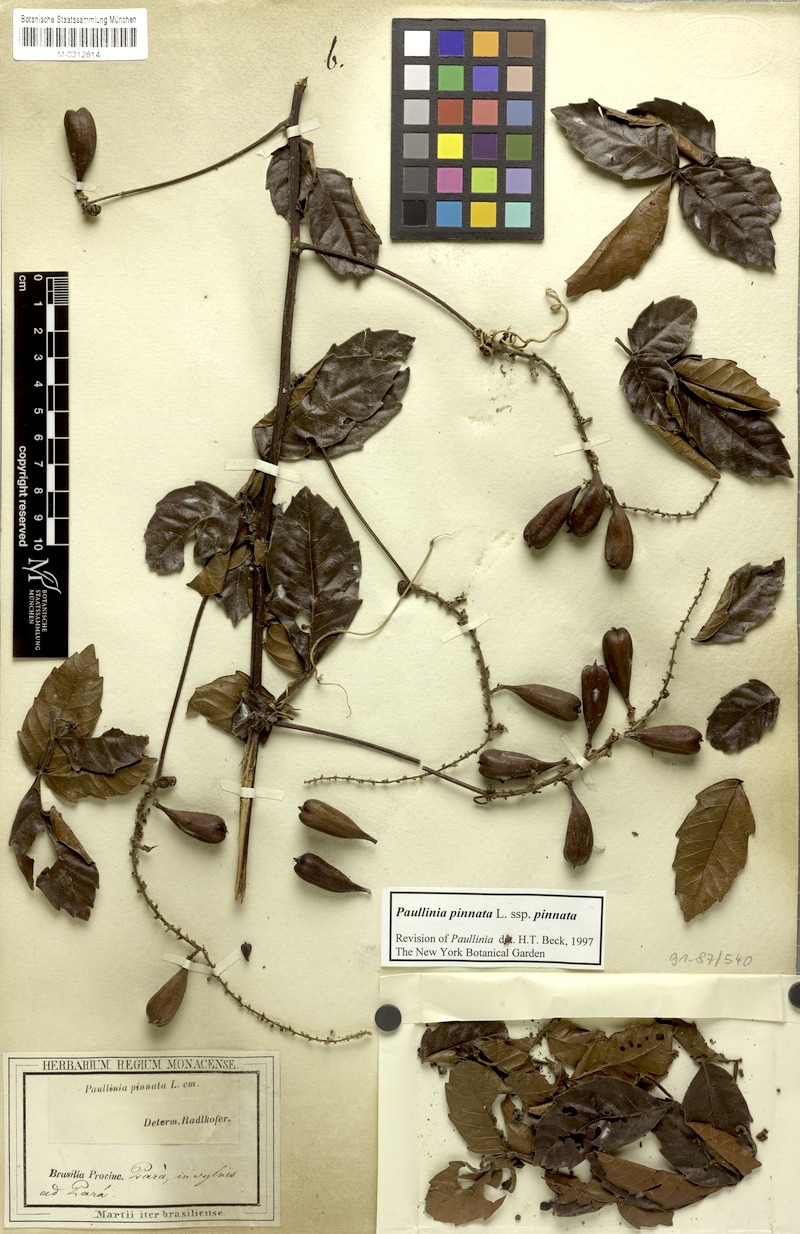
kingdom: Plantae
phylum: Tracheophyta
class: Magnoliopsida
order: Sapindales
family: Sapindaceae
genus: Paullinia
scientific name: Paullinia pinnata
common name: Barbasco
